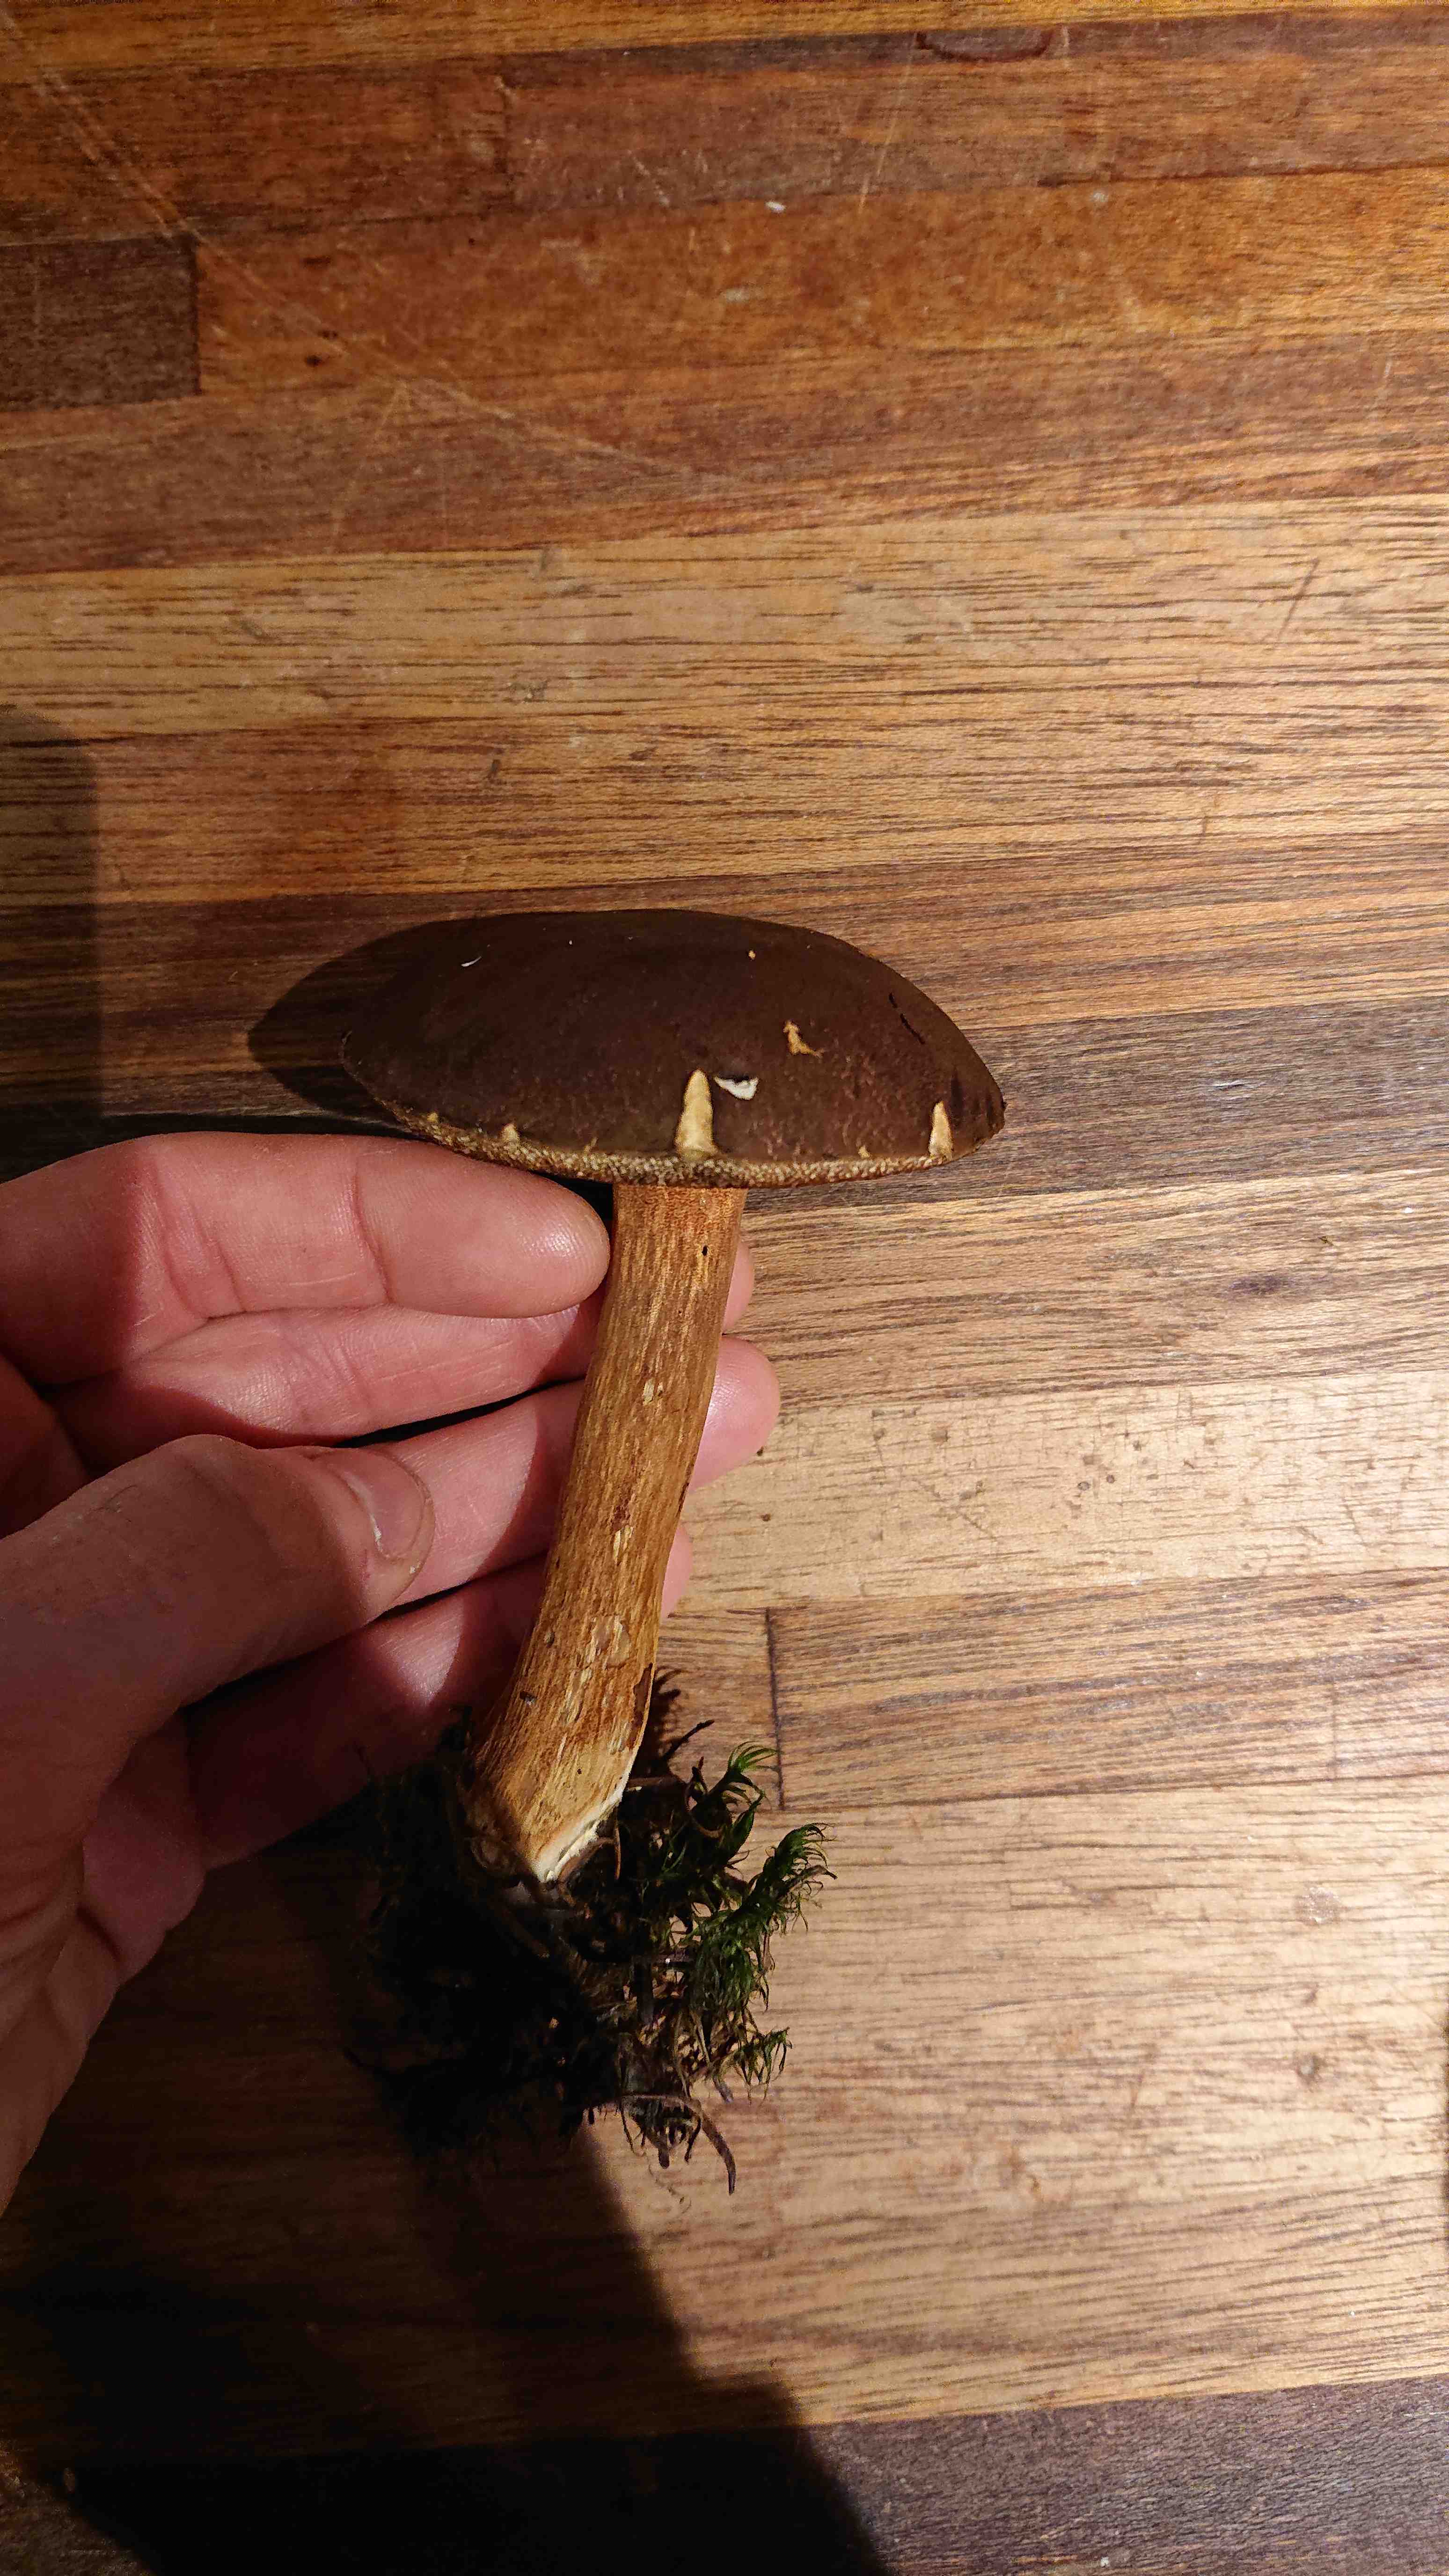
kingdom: Fungi
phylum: Basidiomycota
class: Agaricomycetes
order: Boletales
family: Boletaceae
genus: Imleria
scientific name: Imleria badia
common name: brunstokket rørhat
